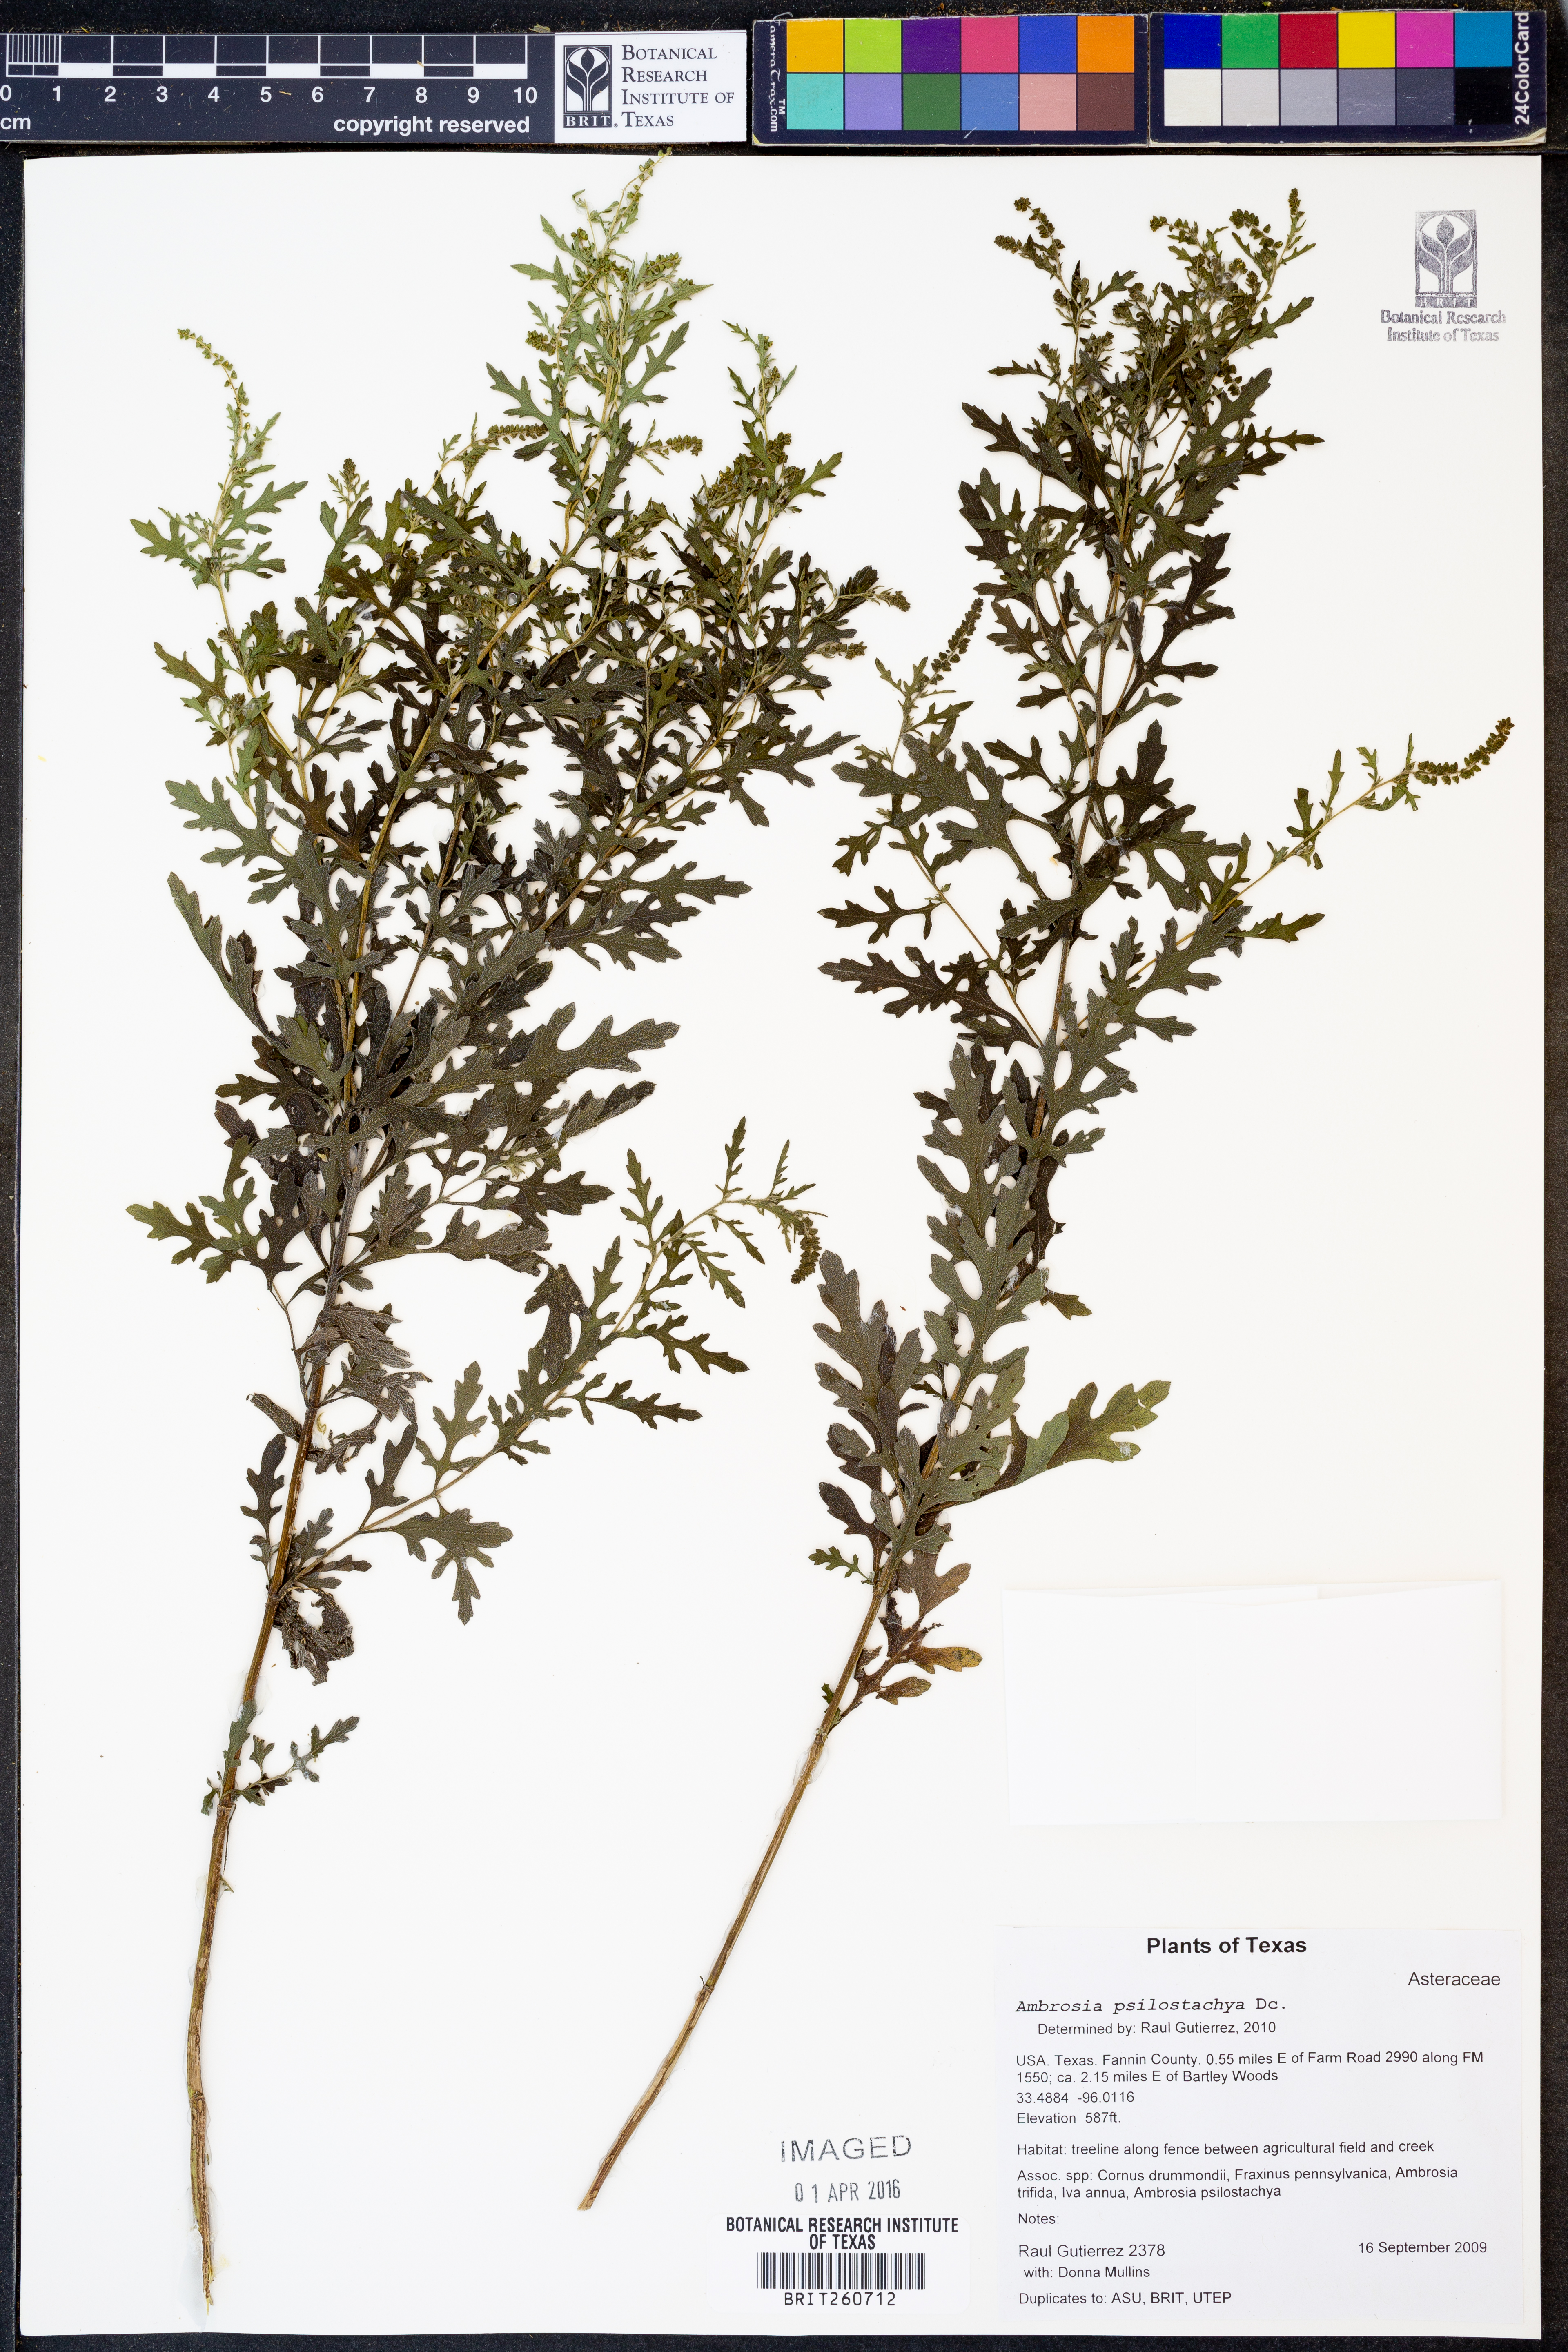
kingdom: Plantae
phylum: Tracheophyta
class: Magnoliopsida
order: Asterales
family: Asteraceae
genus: Ambrosia
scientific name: Ambrosia psilostachya
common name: Perennial ragweed
